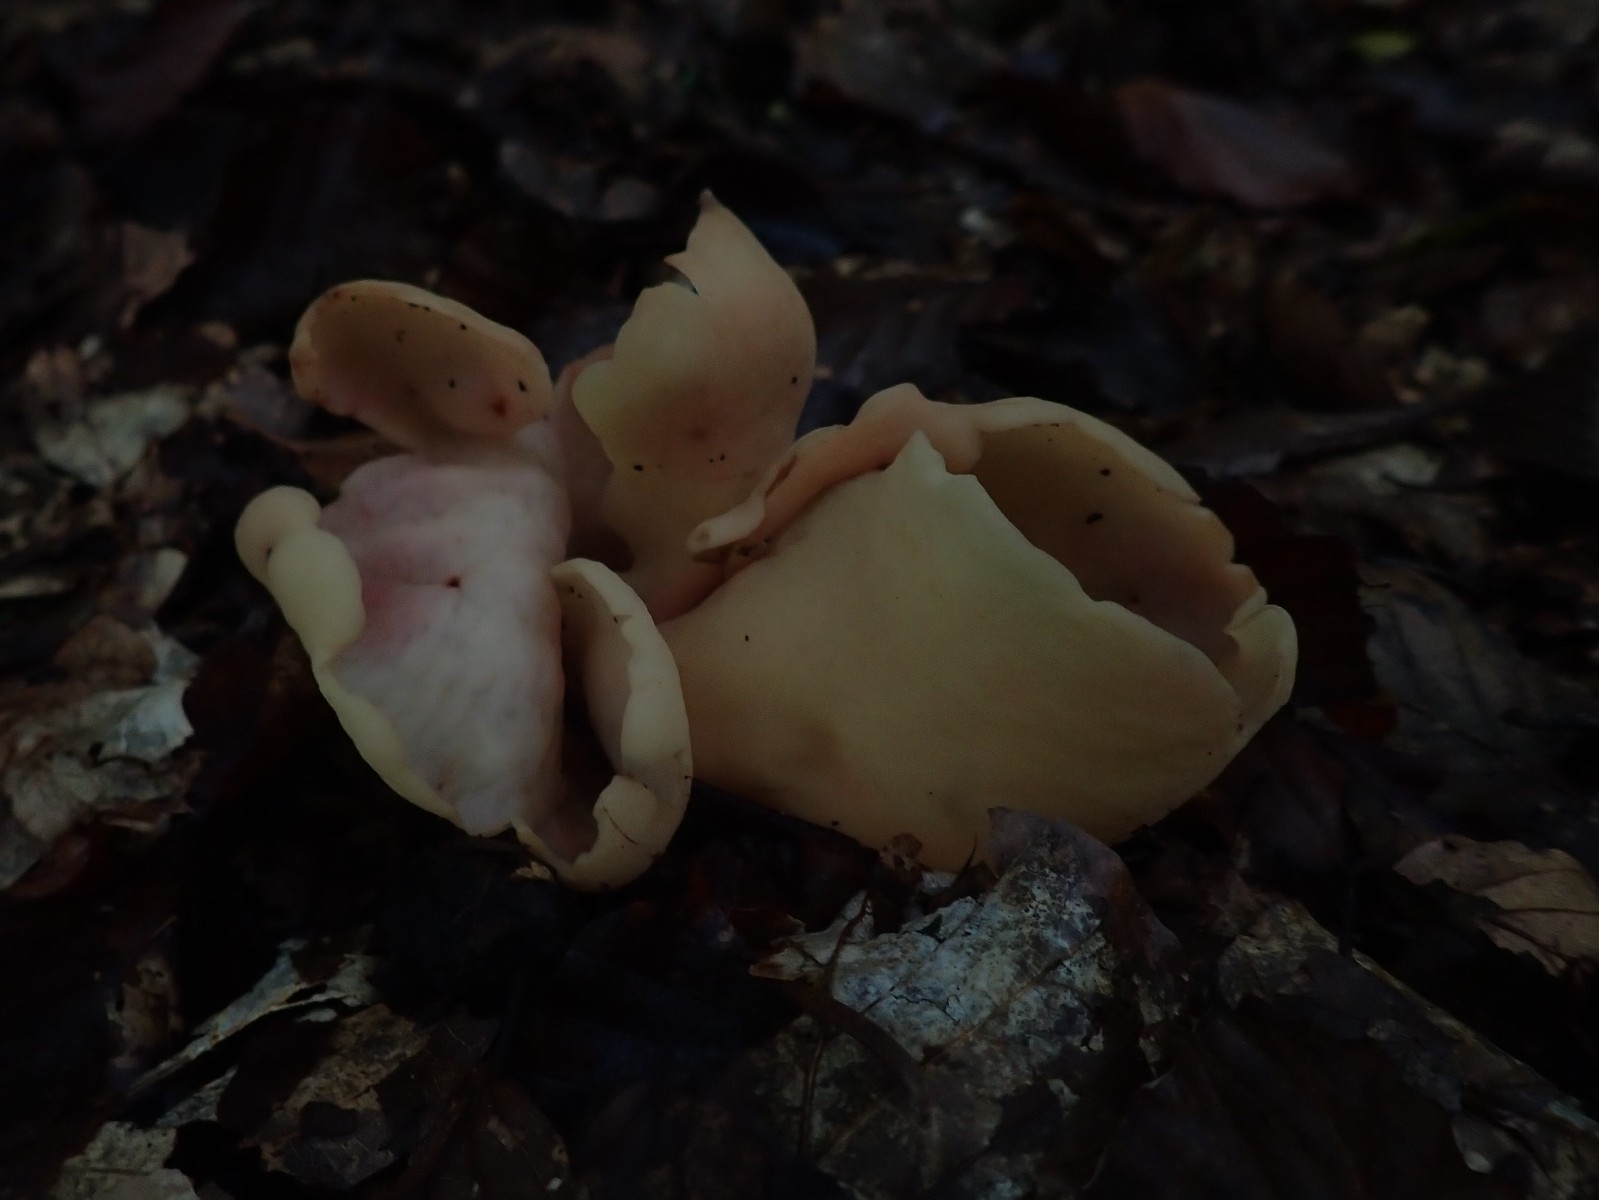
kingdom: Fungi
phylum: Ascomycota
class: Pezizomycetes
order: Pezizales
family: Otideaceae
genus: Otidea
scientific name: Otidea onotica
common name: æsel-ørebæger
